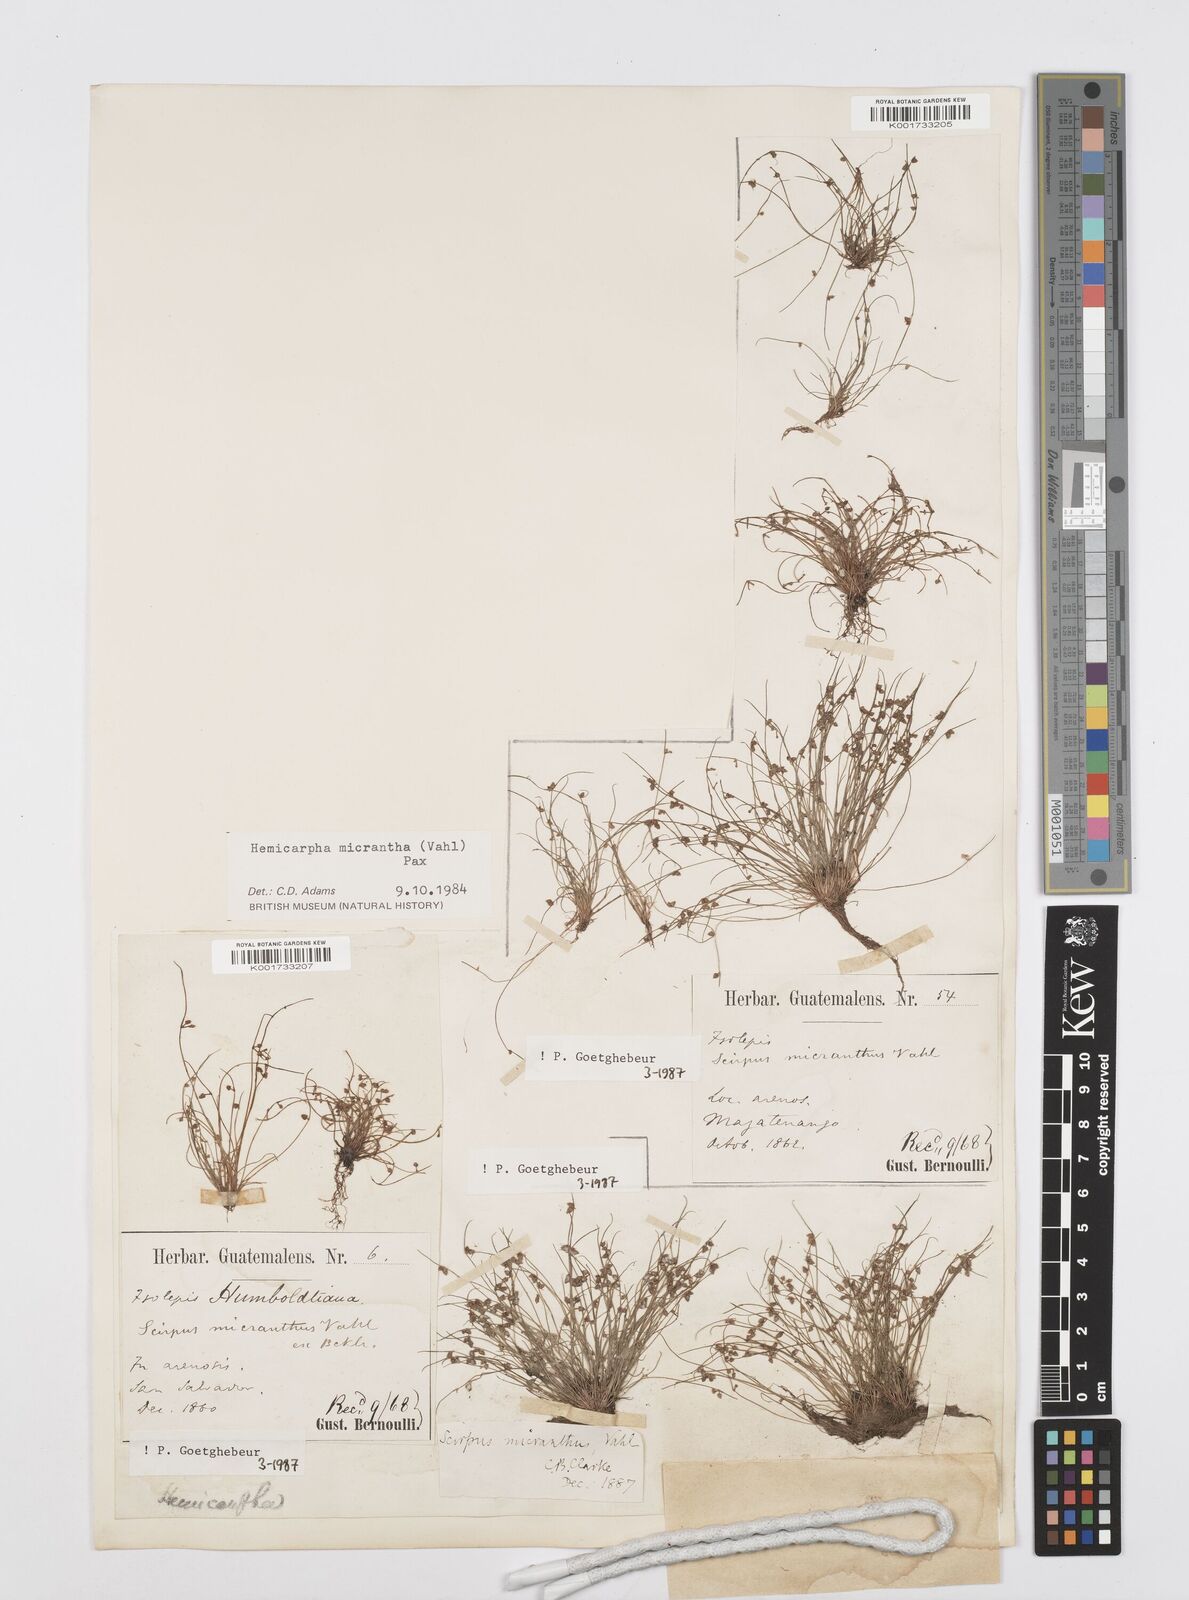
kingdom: Plantae
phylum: Tracheophyta
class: Liliopsida
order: Poales
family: Cyperaceae
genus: Cyperus
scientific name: Cyperus
